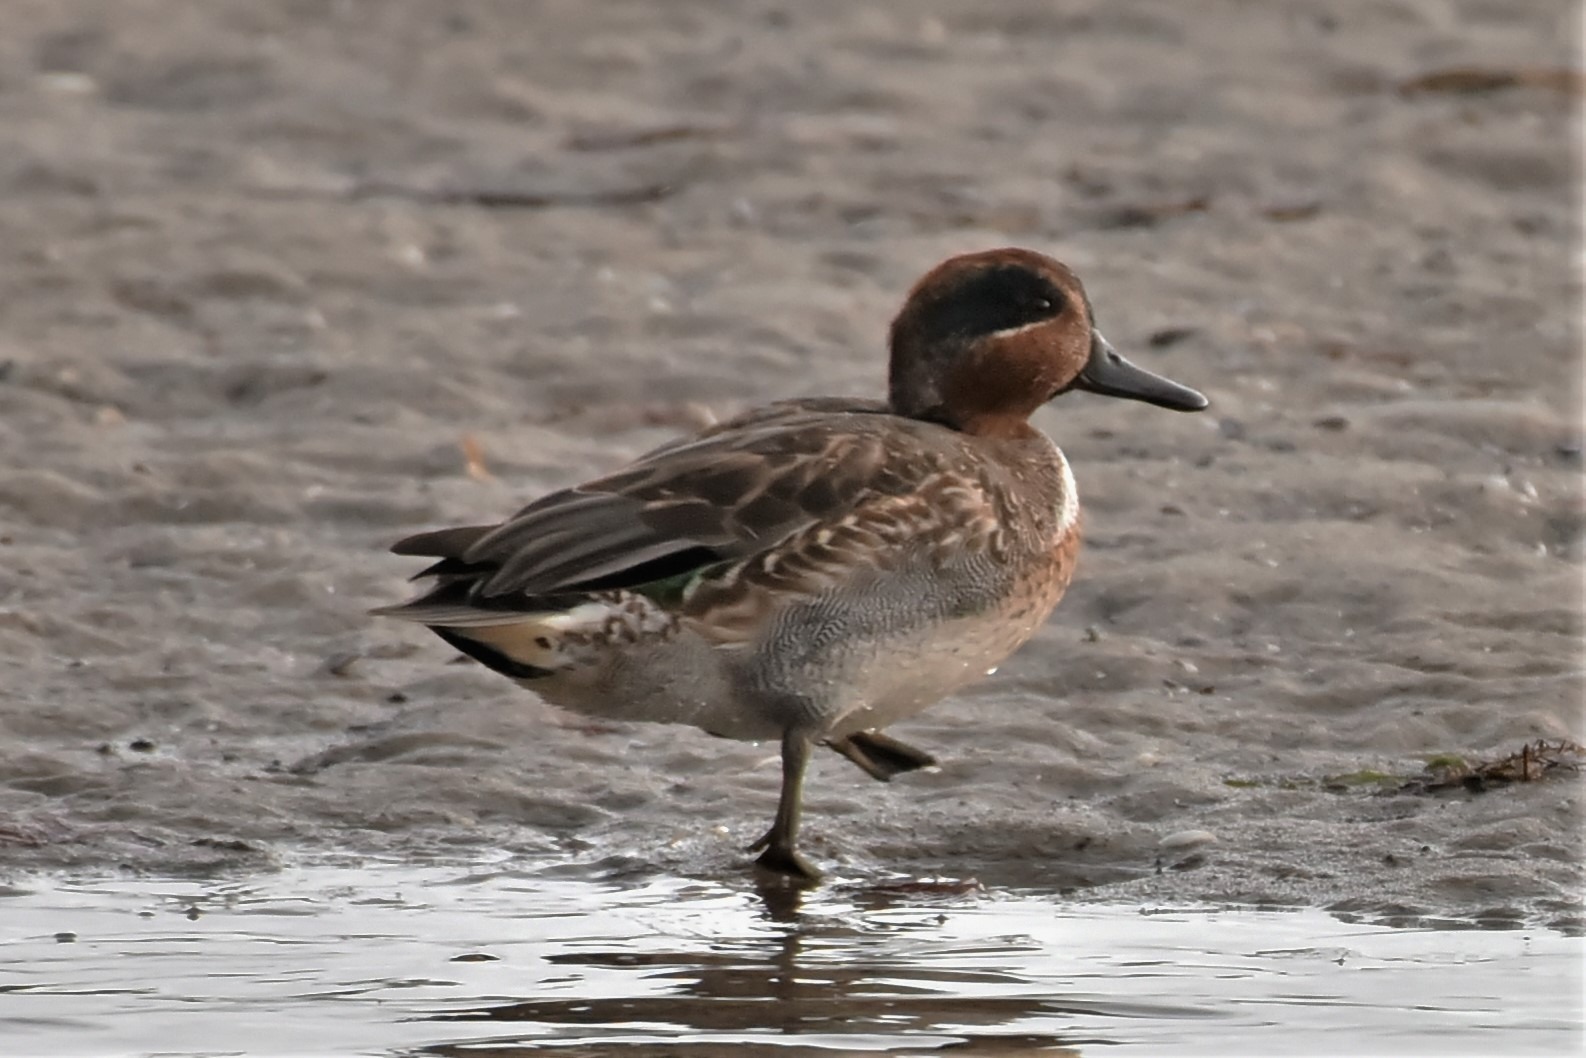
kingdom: Animalia
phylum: Chordata
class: Aves
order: Anseriformes
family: Anatidae
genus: Anas
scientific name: Anas crecca
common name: Krikand
